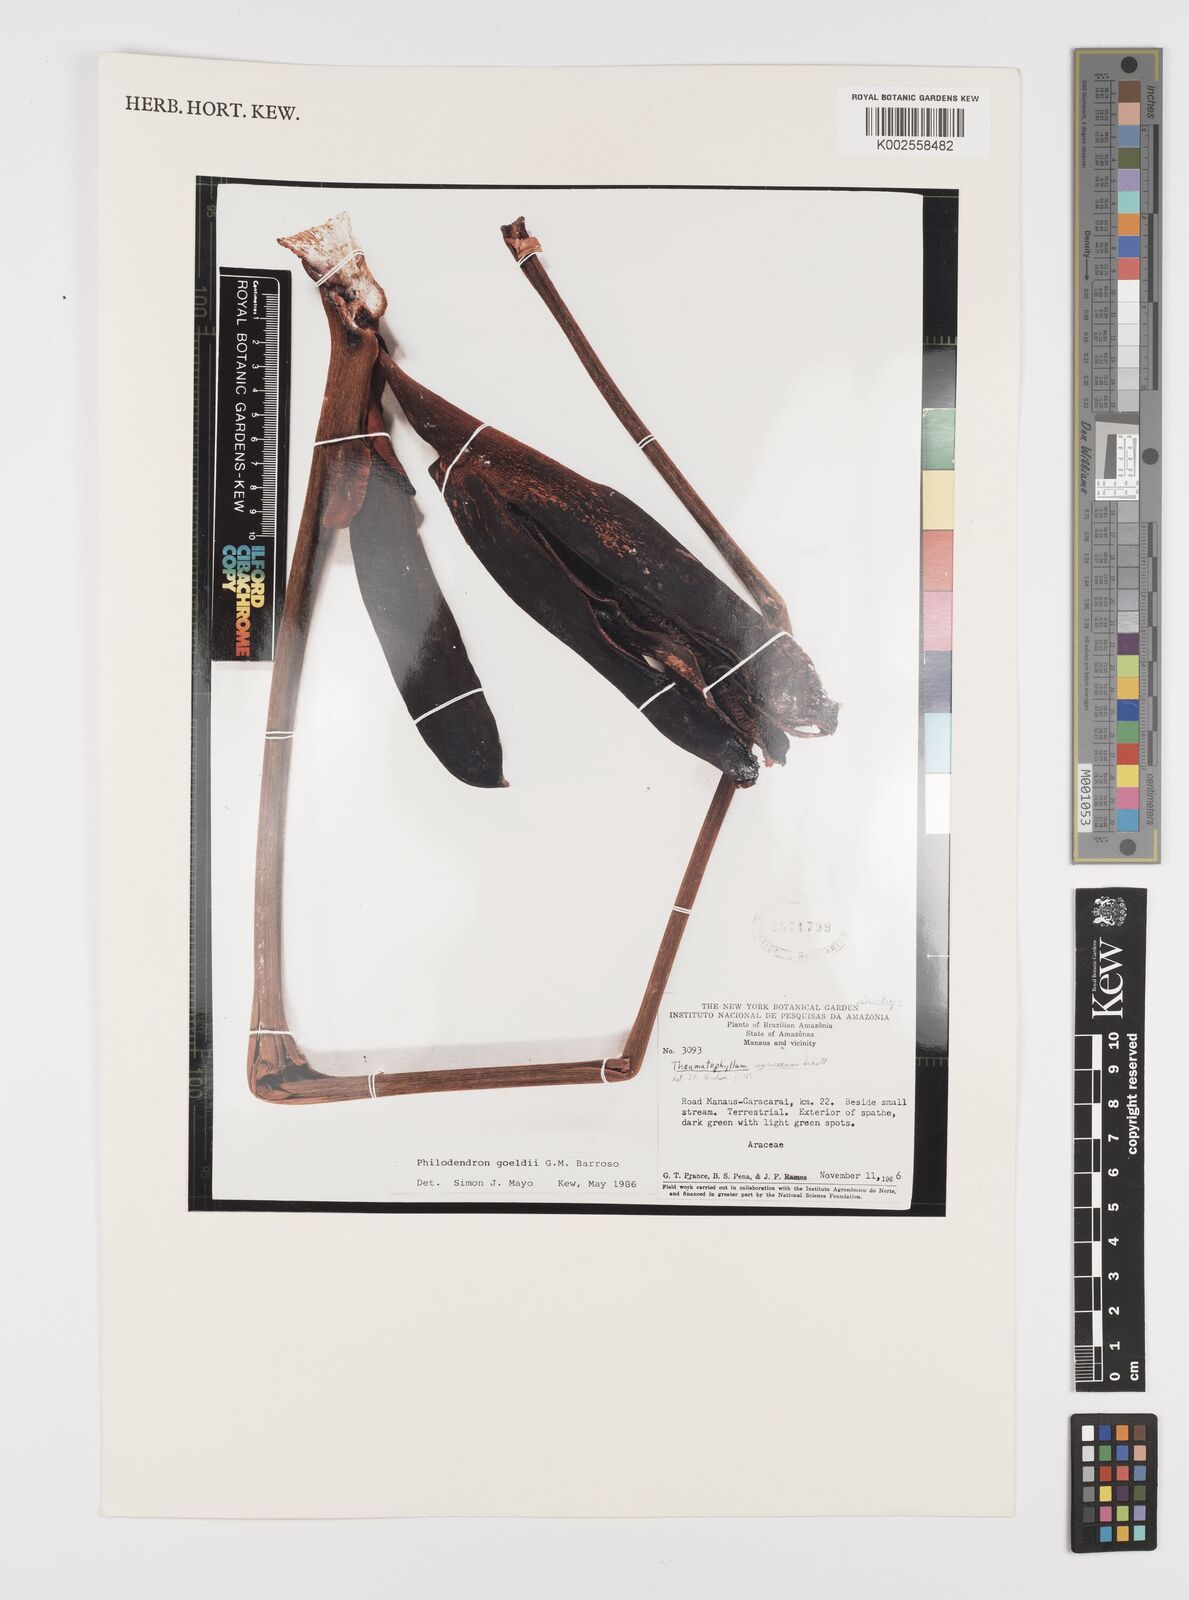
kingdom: Plantae
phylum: Tracheophyta
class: Liliopsida
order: Alismatales
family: Araceae
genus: Thaumatophyllum
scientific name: Thaumatophyllum spruceanum
